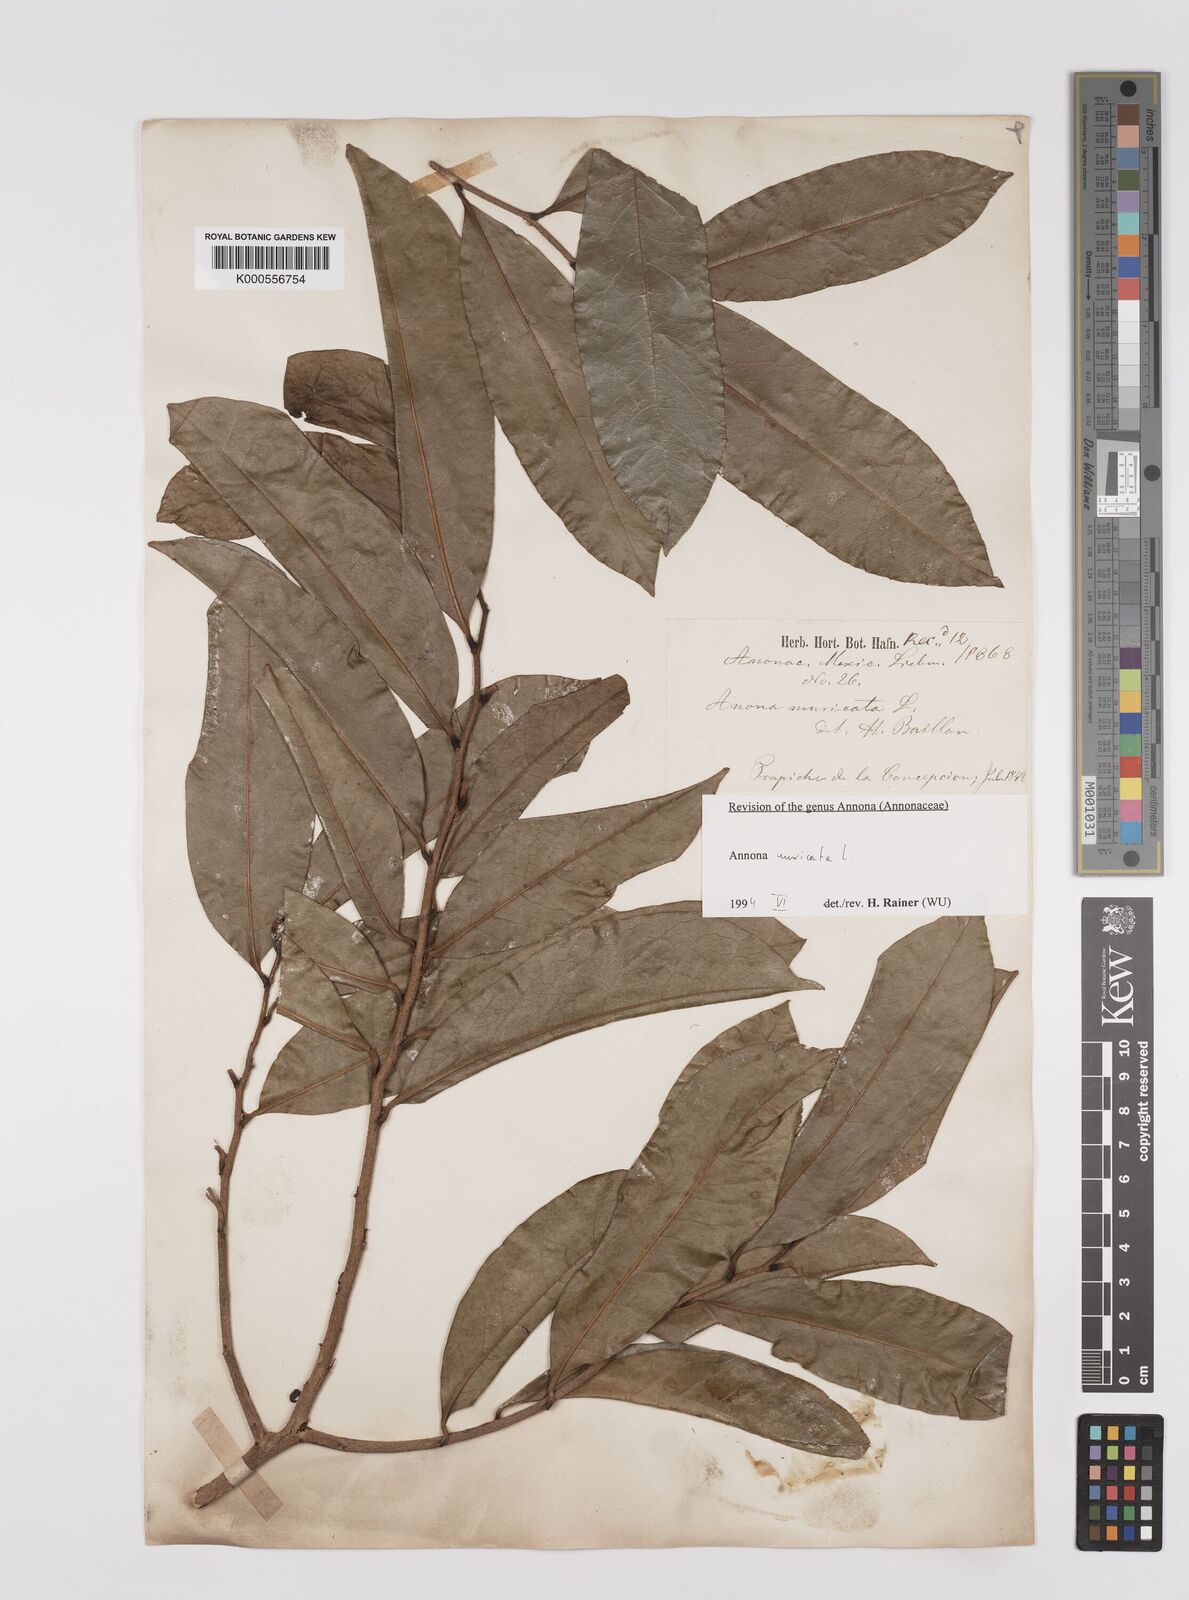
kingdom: Plantae
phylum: Tracheophyta
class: Magnoliopsida
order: Magnoliales
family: Annonaceae
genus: Annona
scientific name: Annona muricata
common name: Soursop
